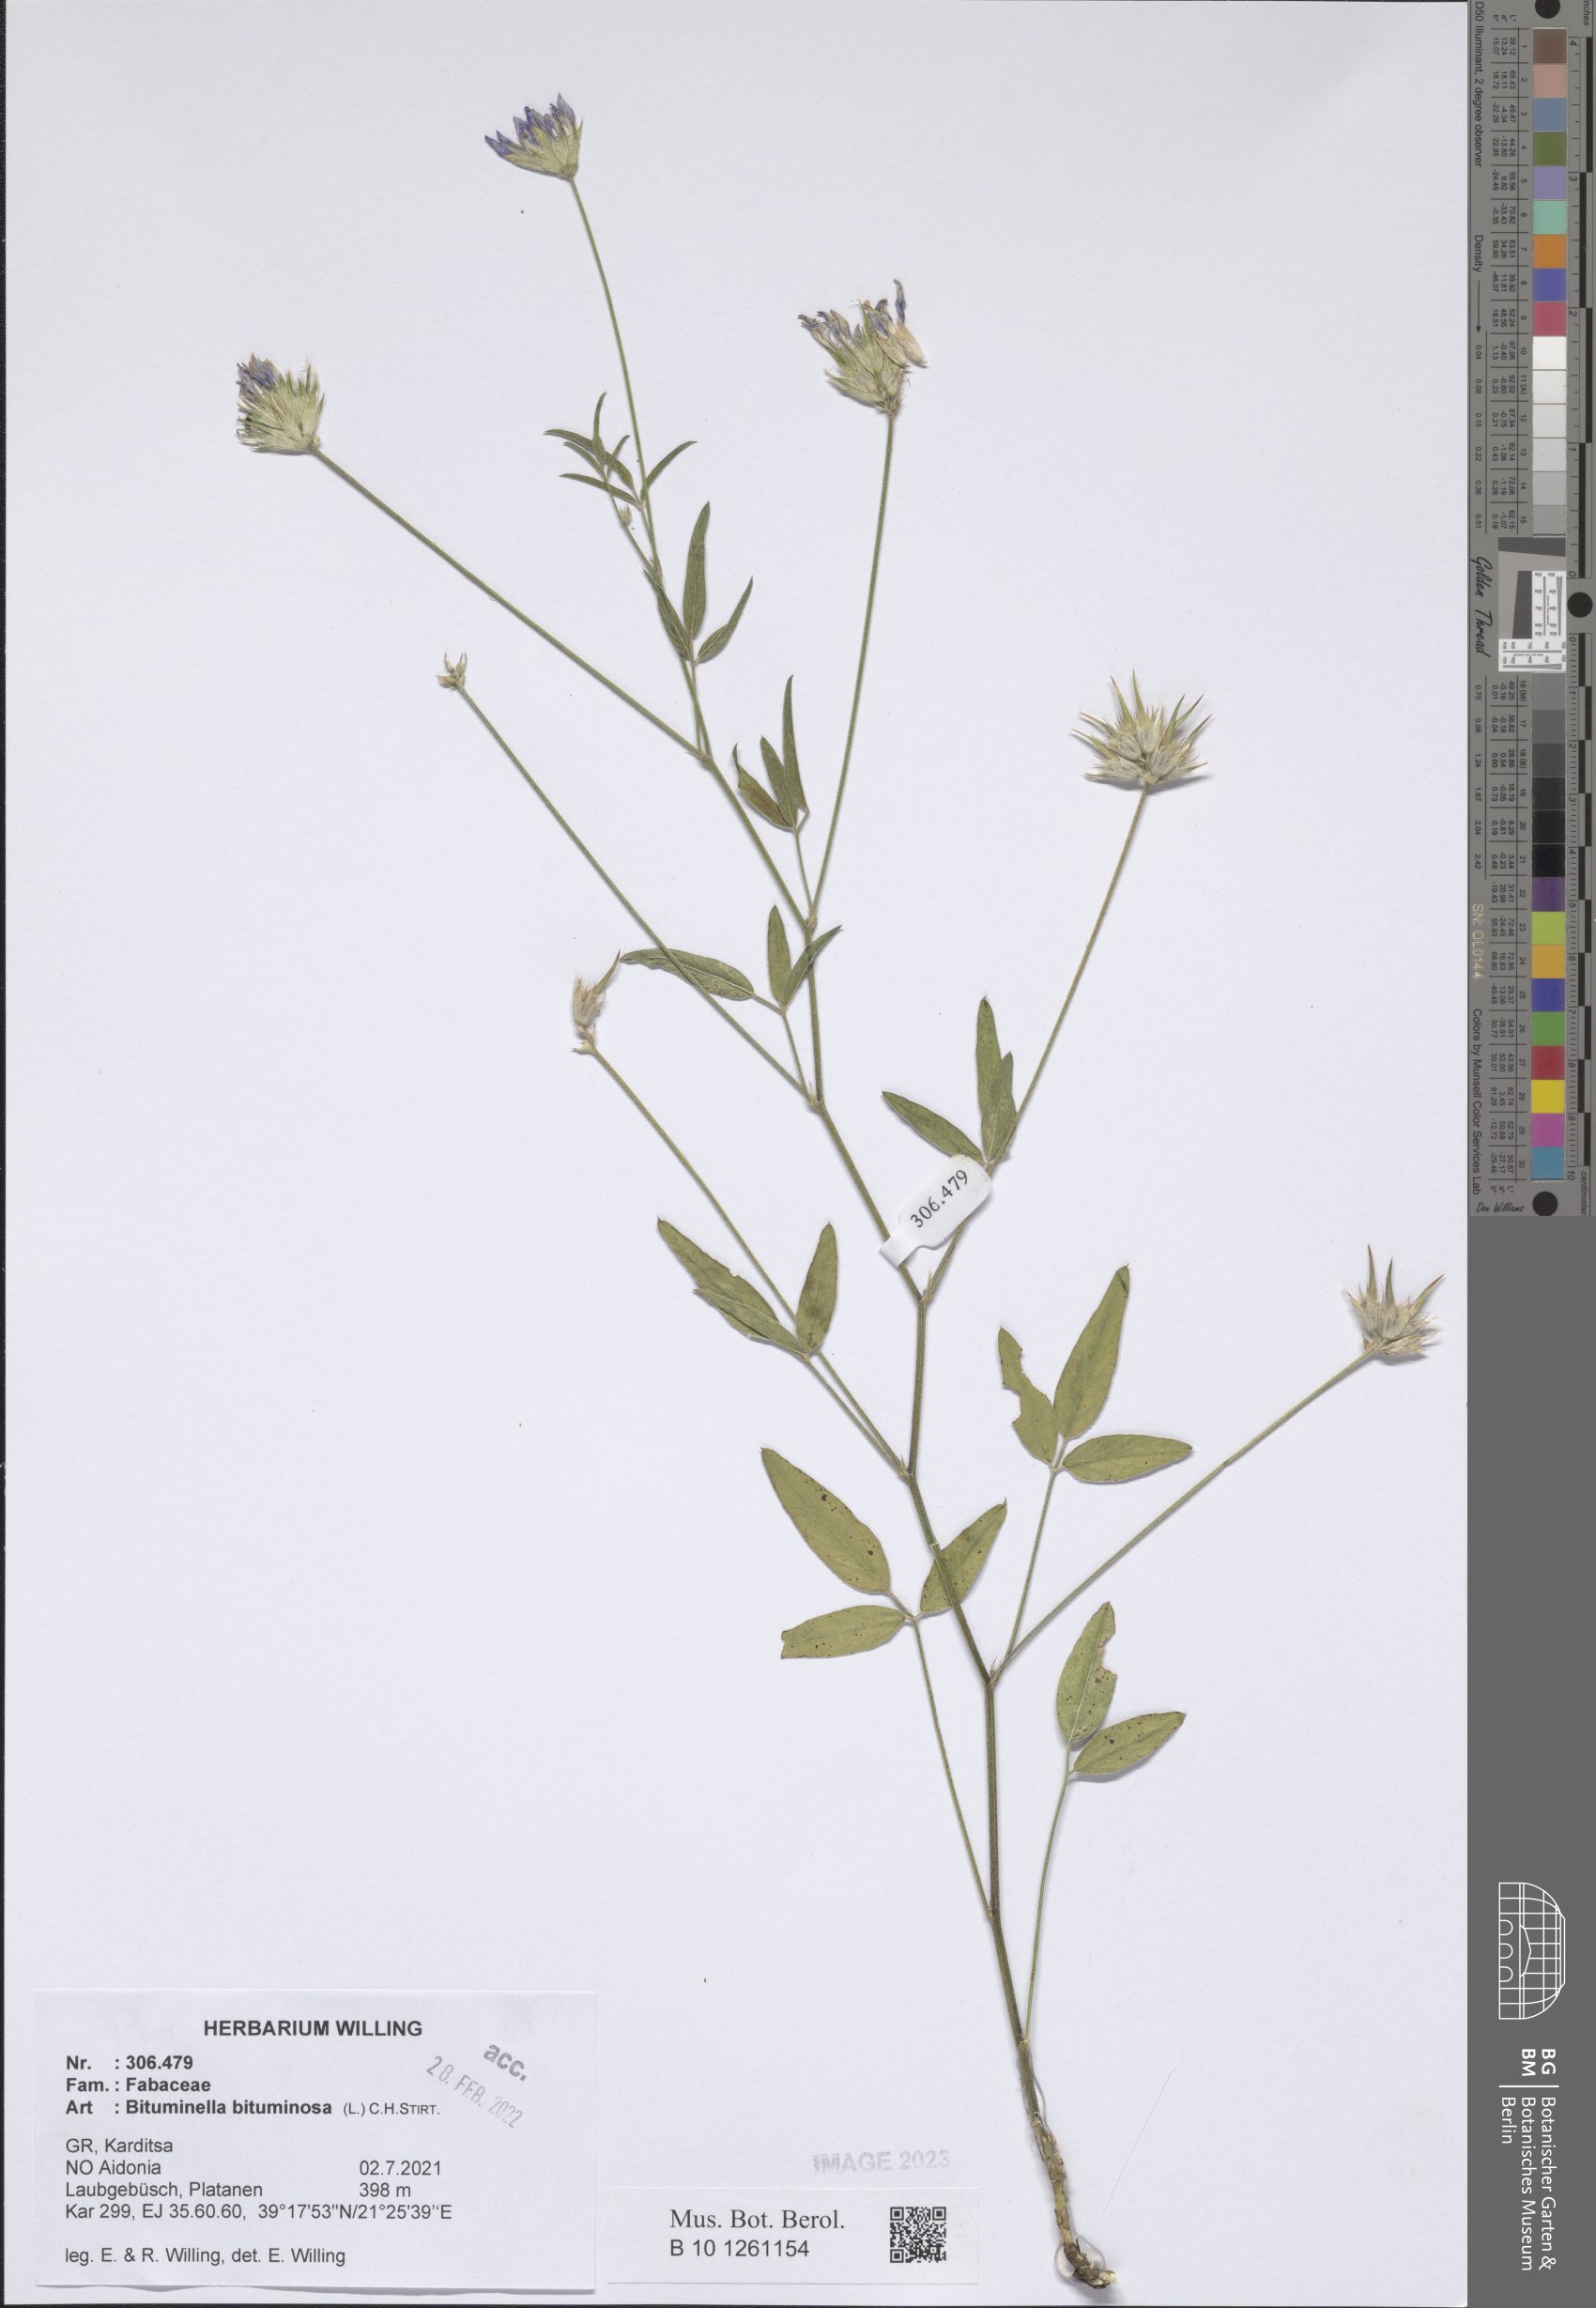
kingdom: Plantae
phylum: Tracheophyta
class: Magnoliopsida
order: Fabales
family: Fabaceae
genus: Bituminaria
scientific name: Bituminaria bituminosa
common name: Arabian pea
